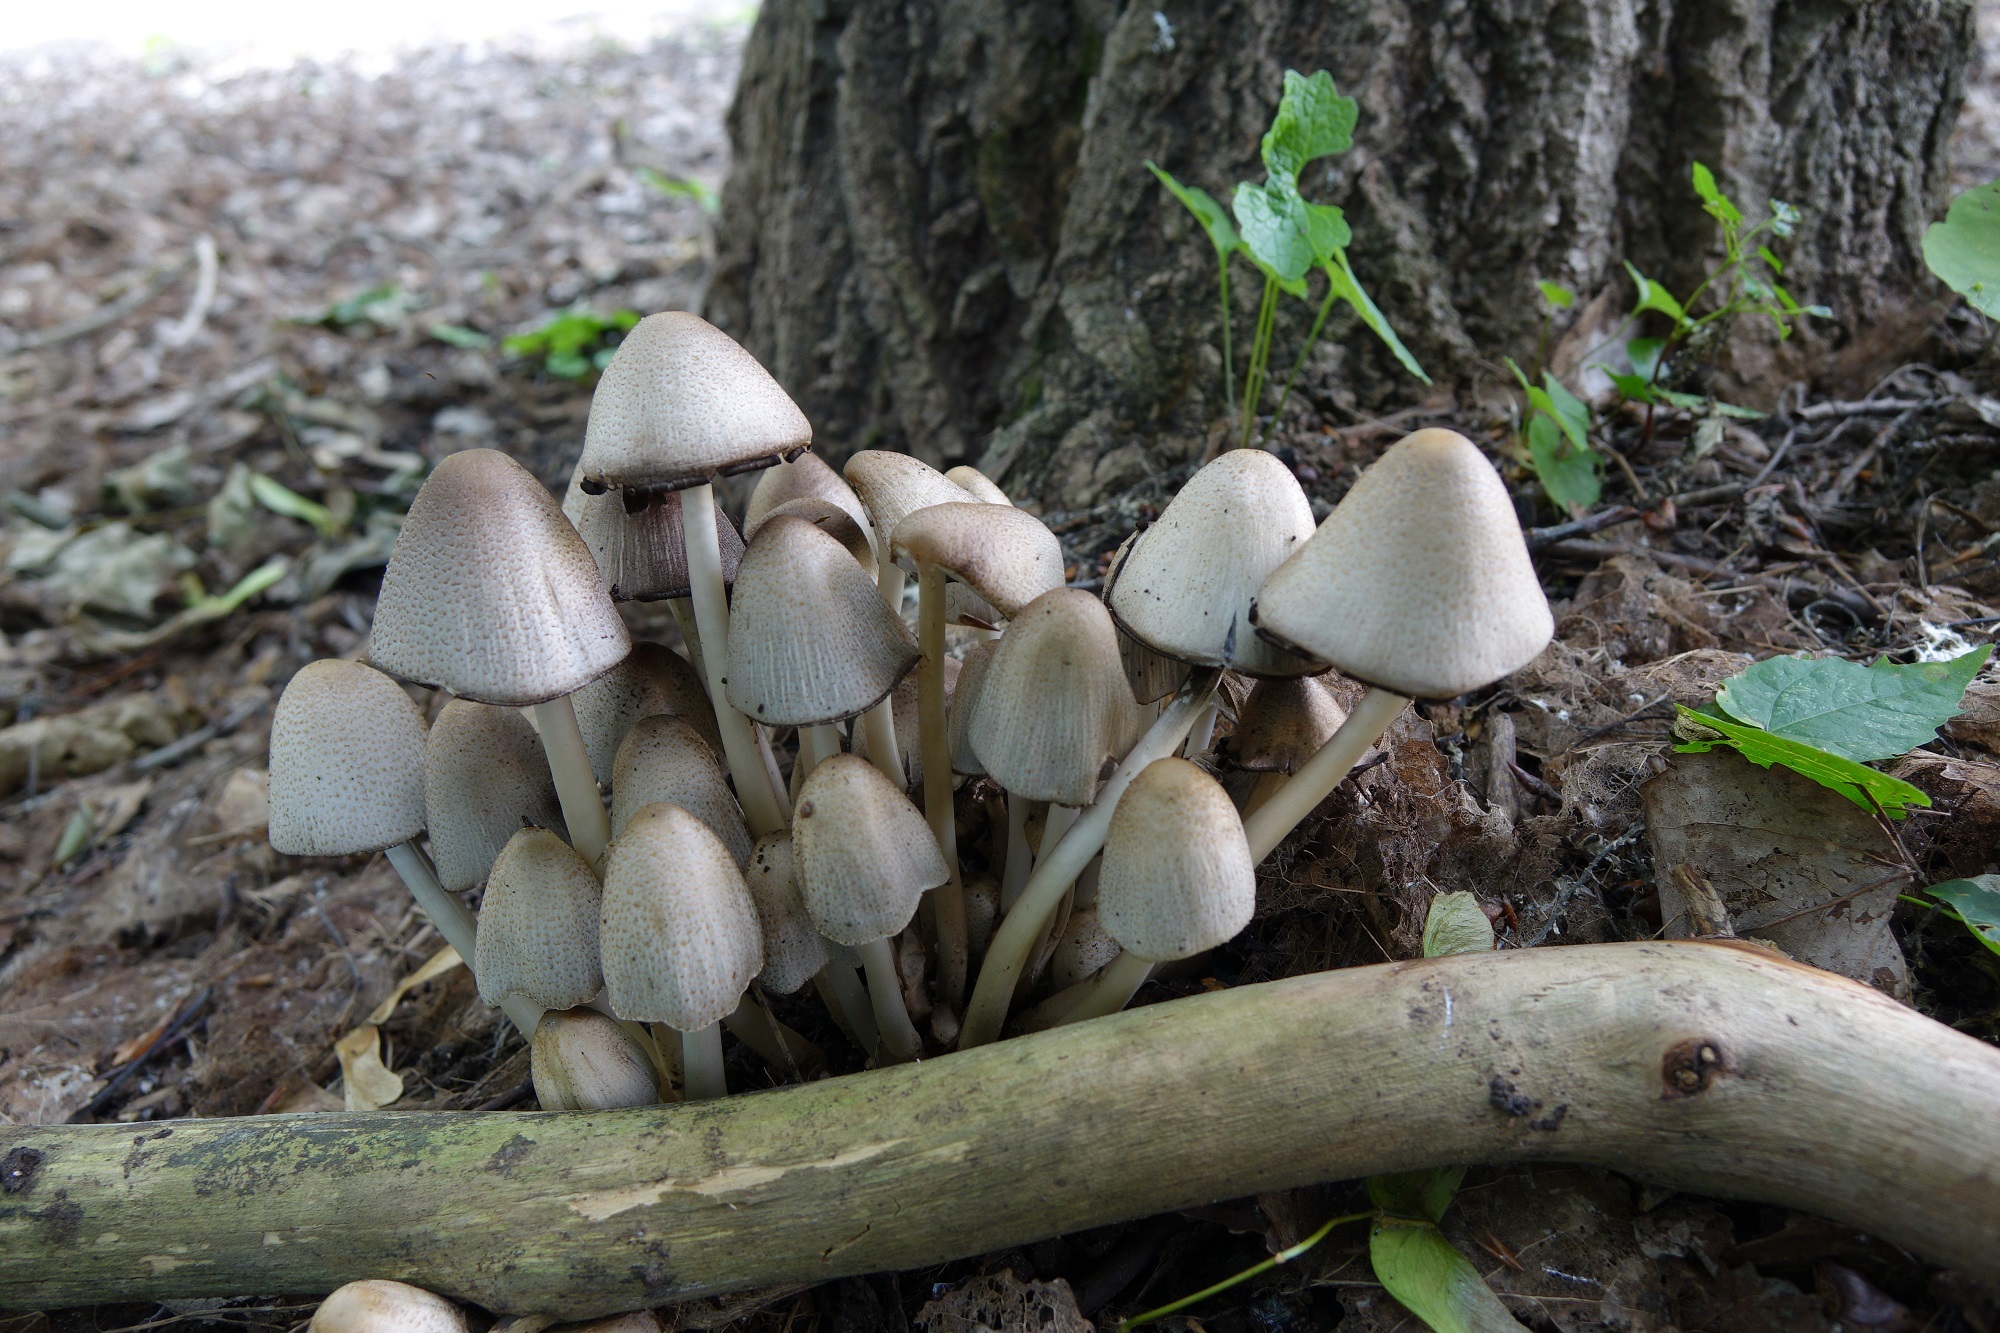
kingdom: Fungi
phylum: Basidiomycota
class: Agaricomycetes
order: Agaricales
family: Psathyrellaceae
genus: Coprinopsis
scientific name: Coprinopsis atramentaria
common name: Common ink-cap
